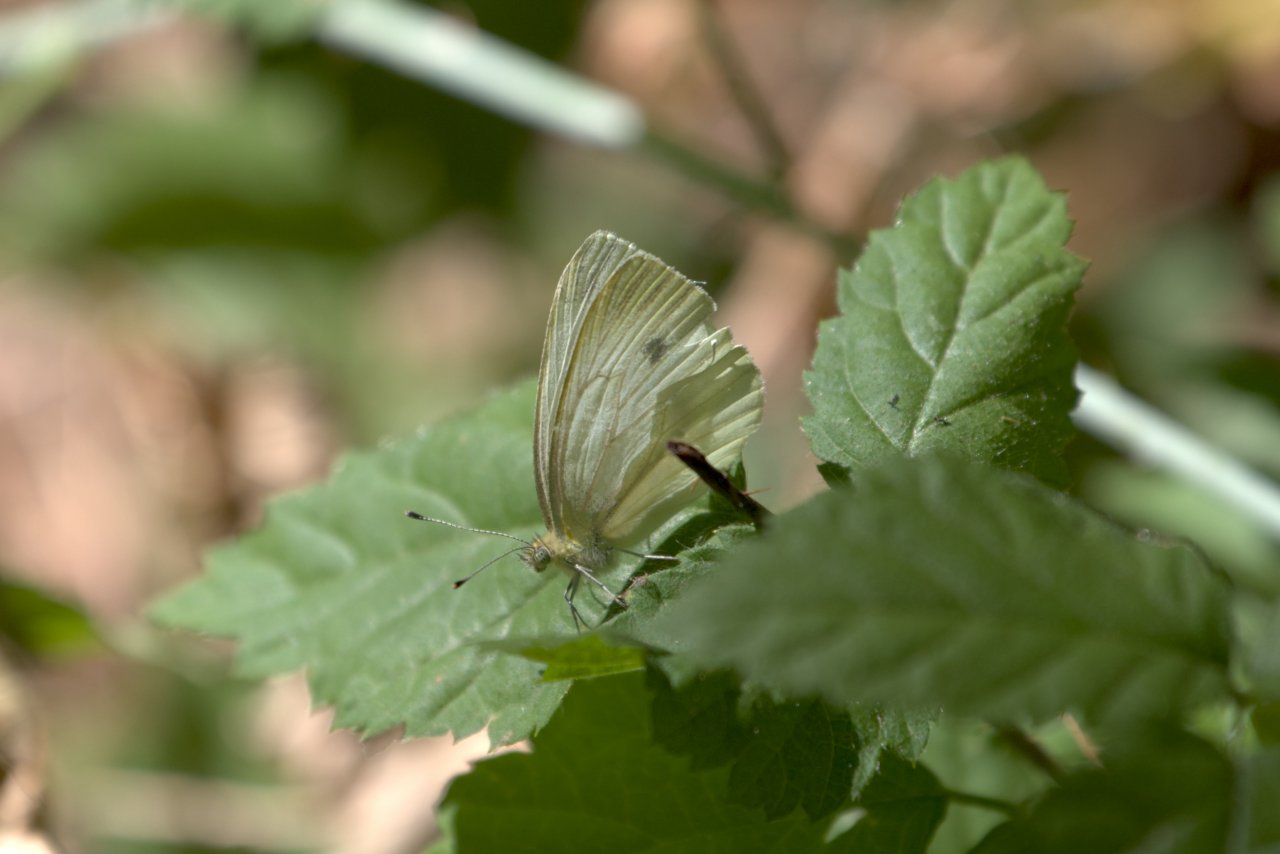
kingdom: Animalia
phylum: Arthropoda
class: Insecta
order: Lepidoptera
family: Pieridae
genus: Pieris
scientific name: Pieris rapae
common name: Cabbage White
